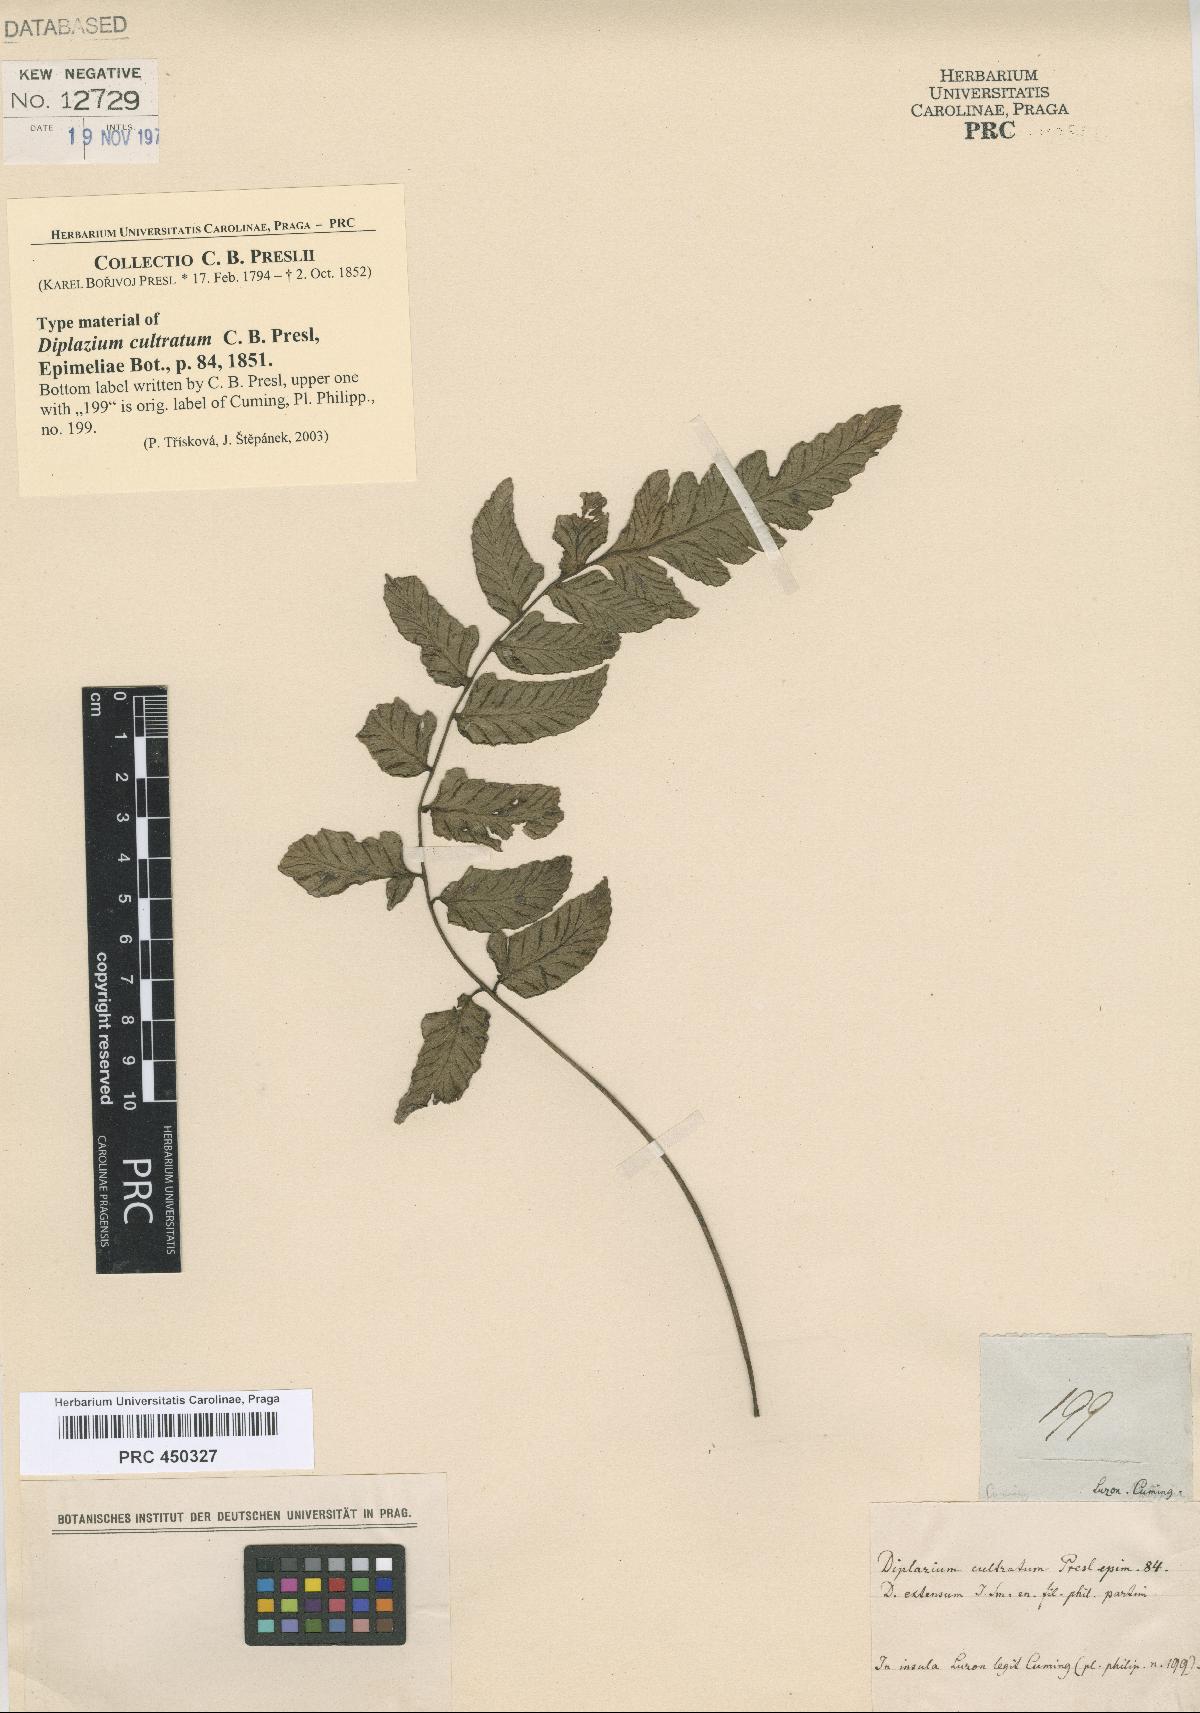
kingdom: Plantae
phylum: Tracheophyta
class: Polypodiopsida
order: Polypodiales
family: Athyriaceae
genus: Diplazium
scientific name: Diplazium cultratum
